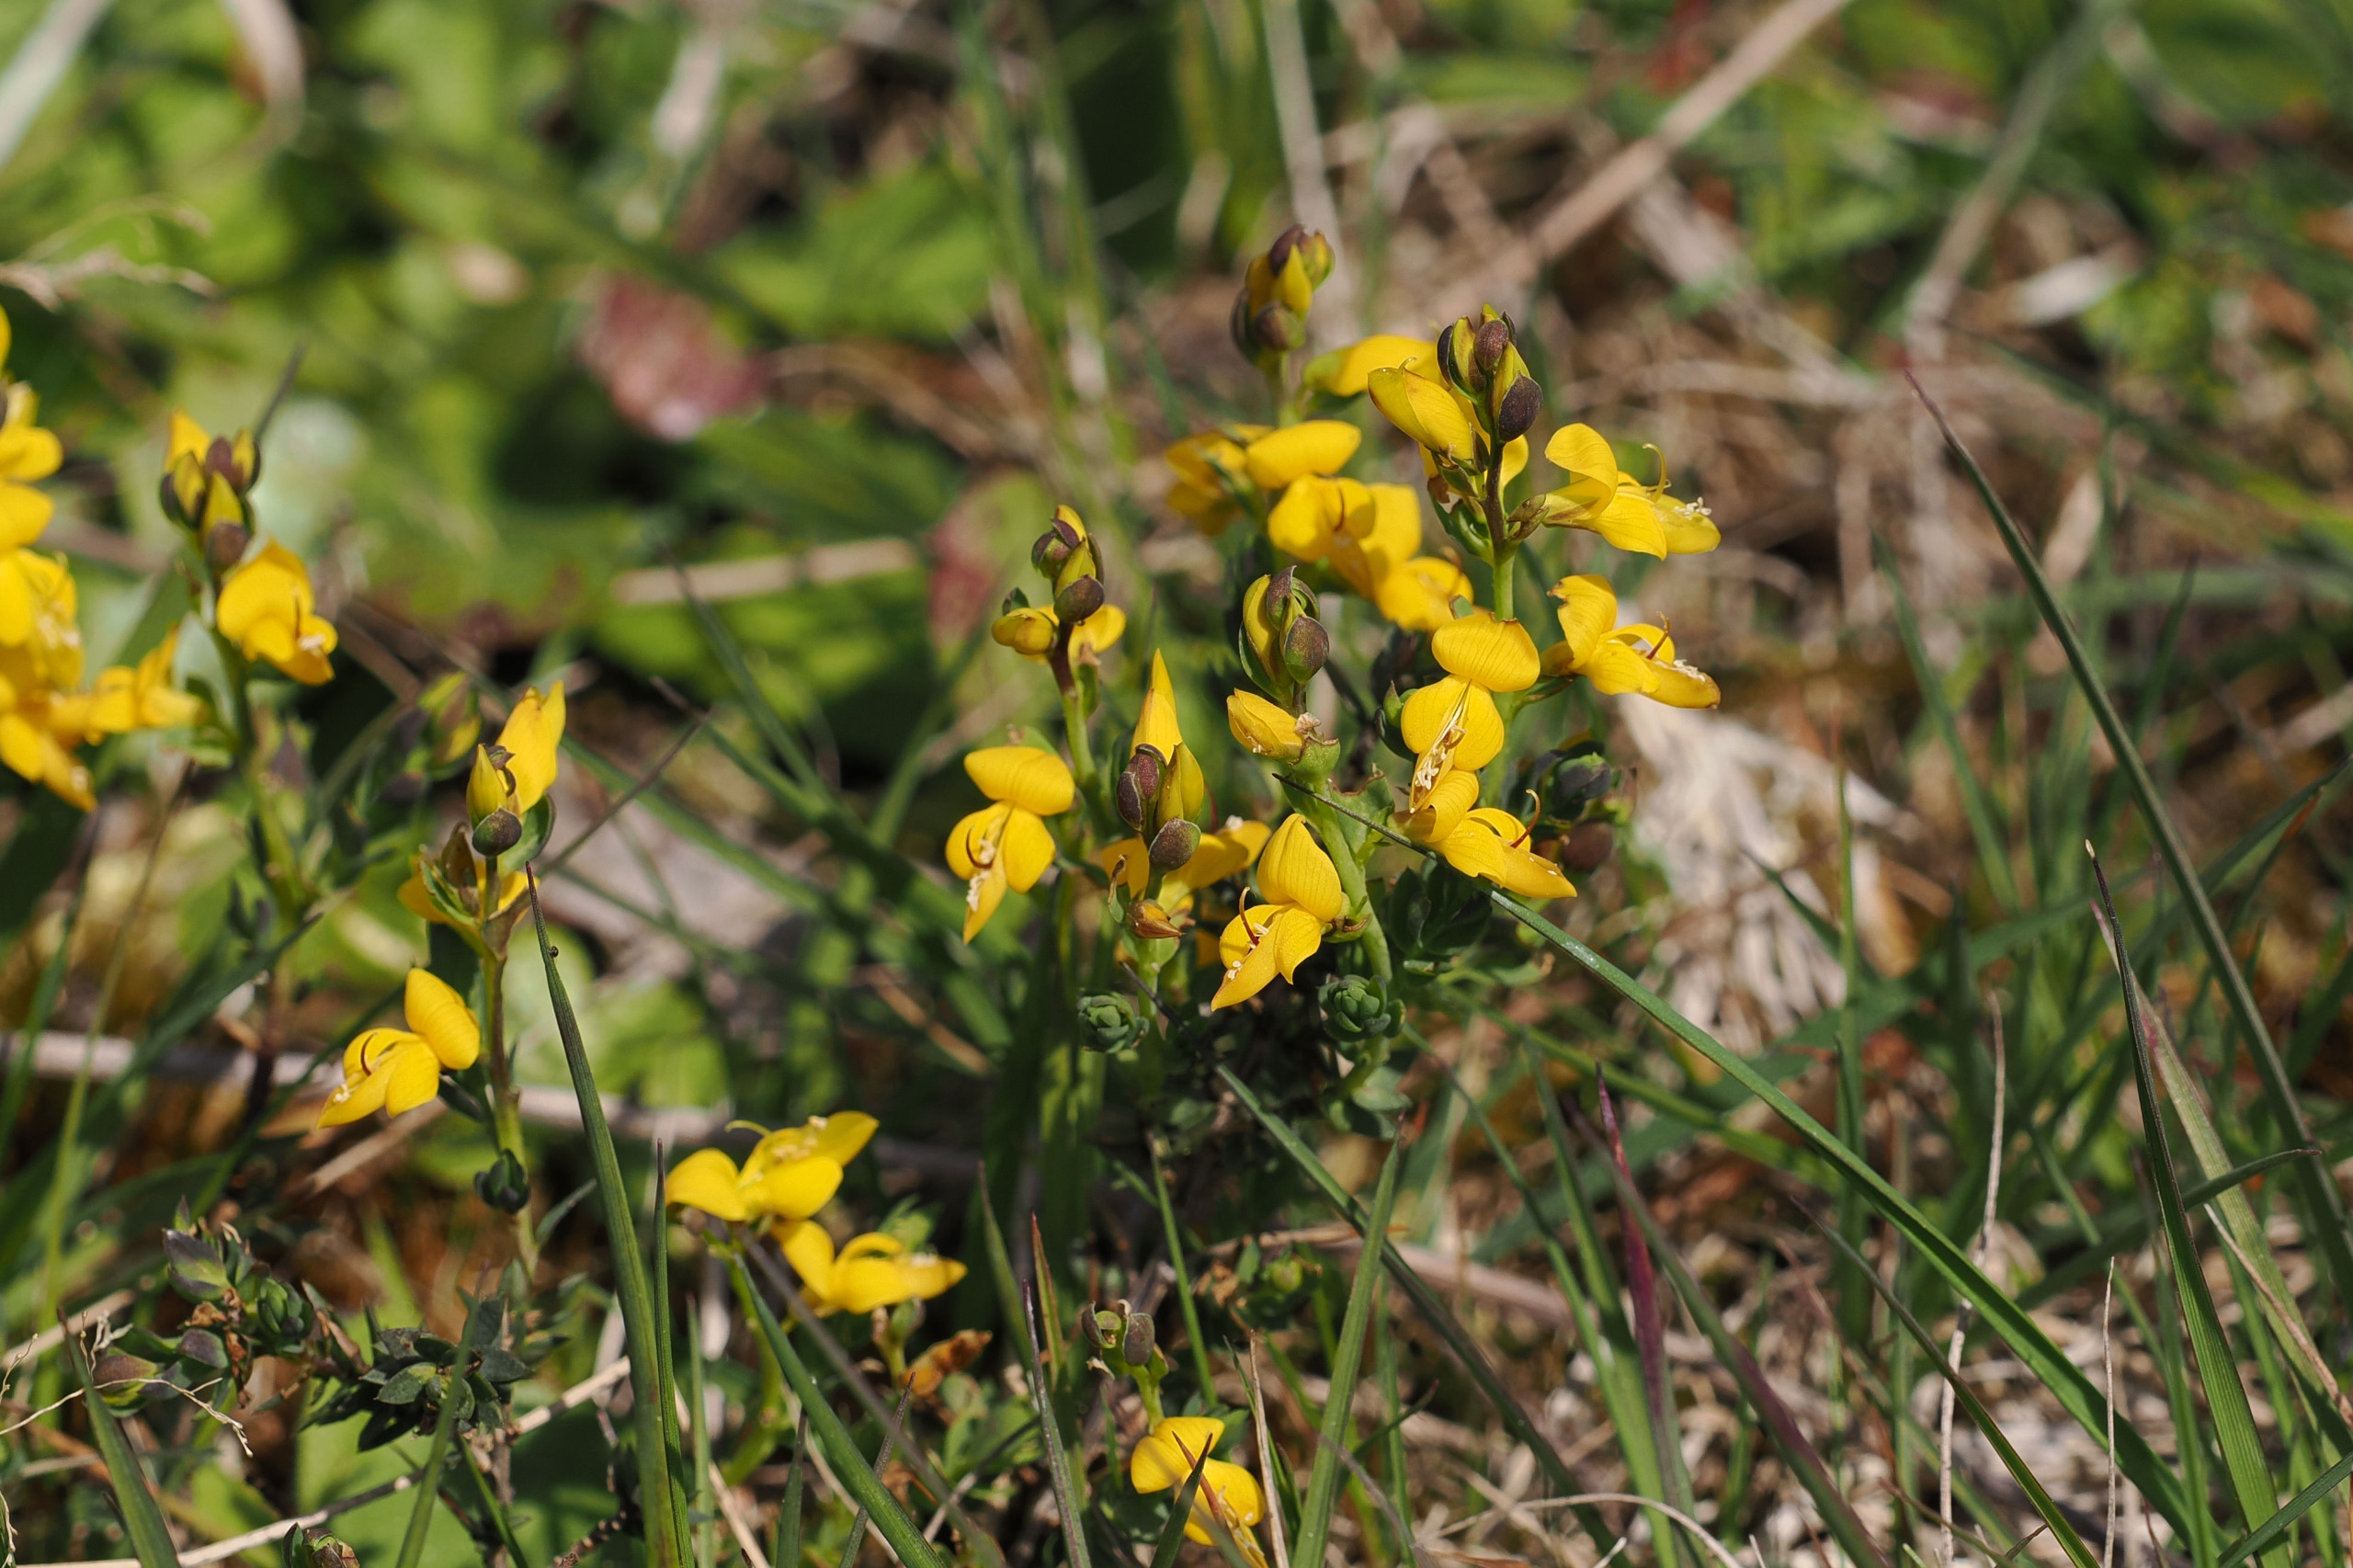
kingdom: Plantae
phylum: Tracheophyta
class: Magnoliopsida
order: Fabales
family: Fabaceae
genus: Genista
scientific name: Genista anglica
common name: Engelsk visse
